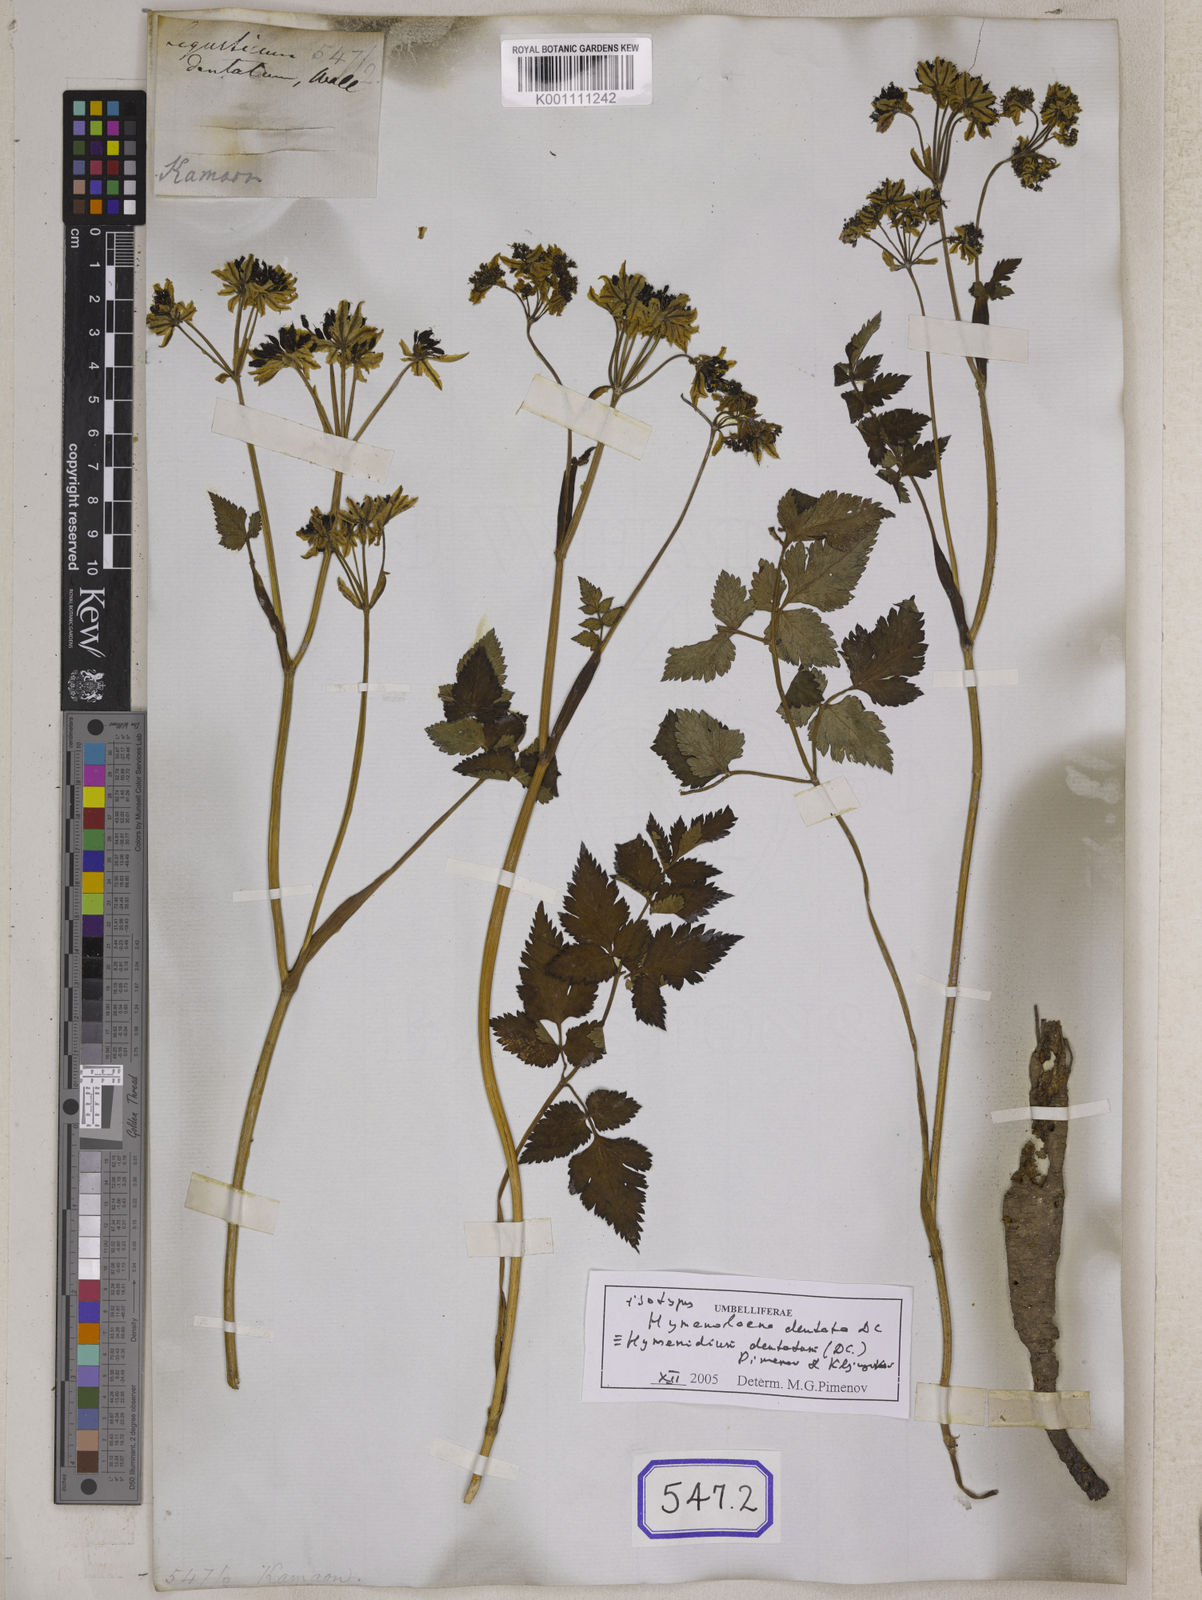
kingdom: Plantae
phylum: Tracheophyta
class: Magnoliopsida
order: Apiales
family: Apiaceae
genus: Hymenidium
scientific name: Hymenidium dentatum
